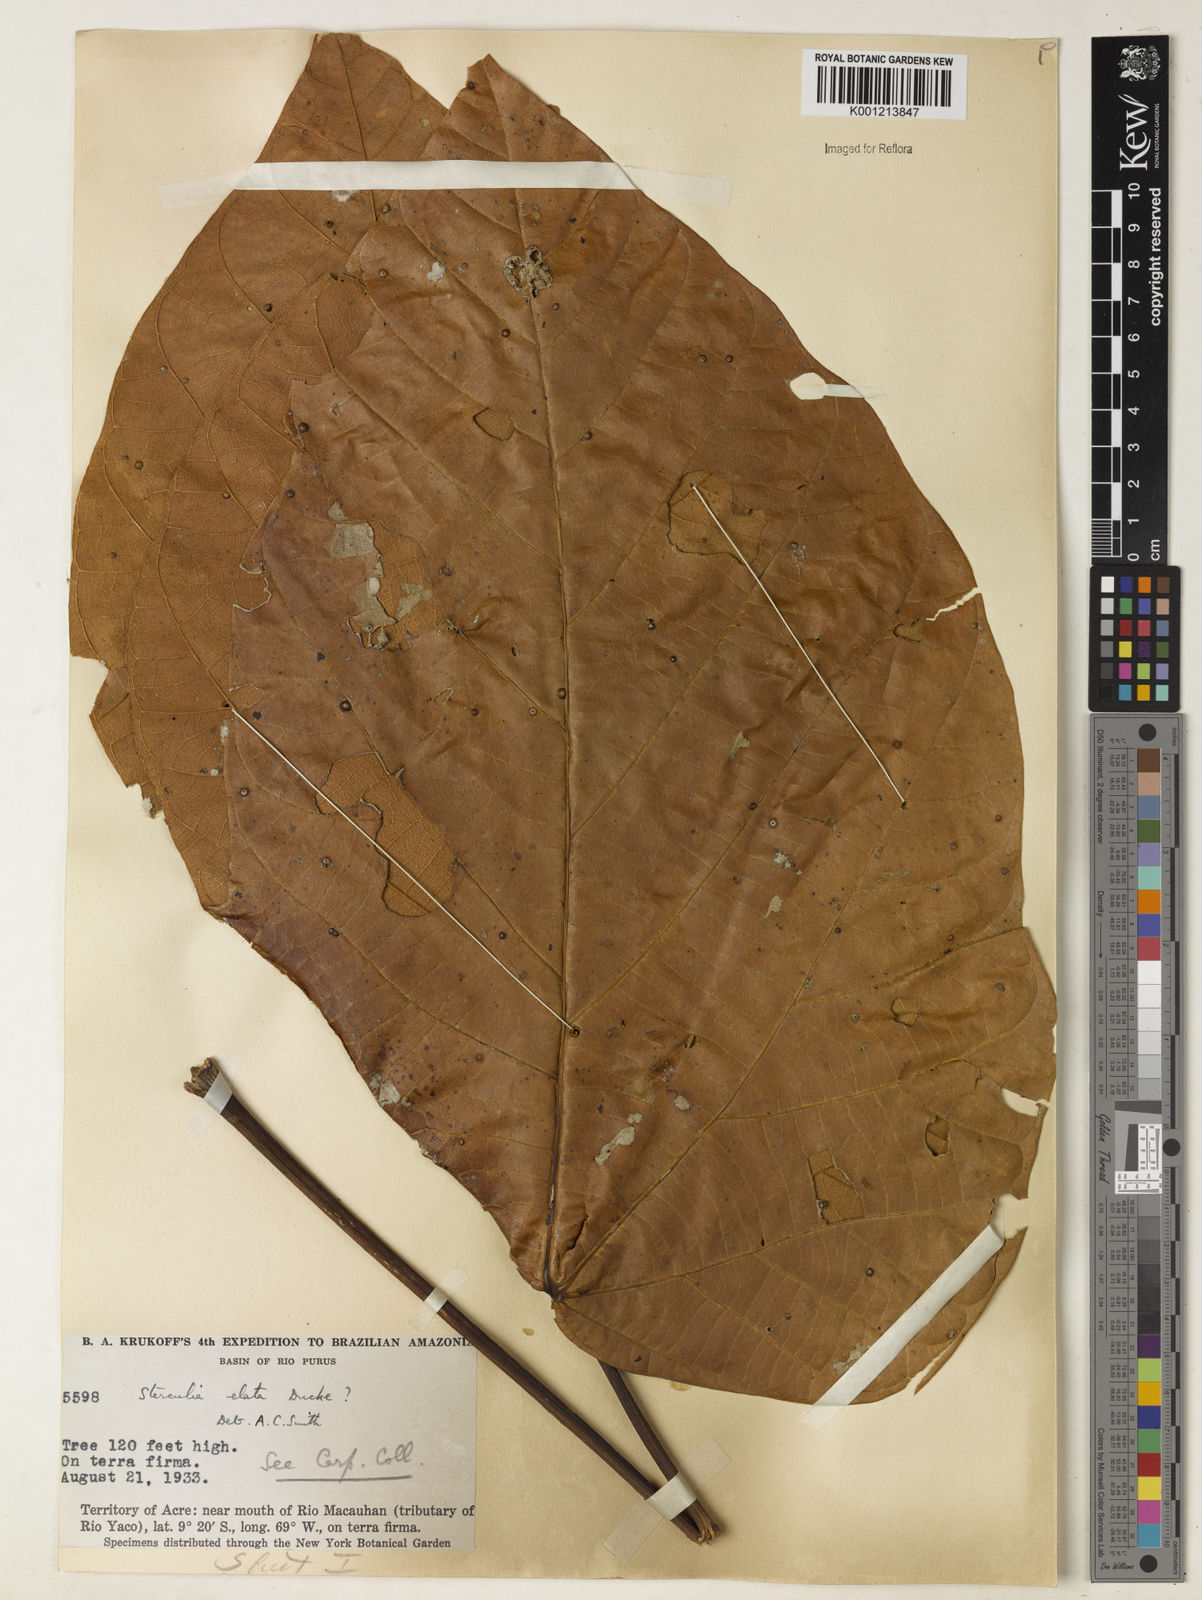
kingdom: Plantae
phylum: Tracheophyta
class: Magnoliopsida
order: Malvales
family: Malvaceae
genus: Sterculia
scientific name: Sterculia apetala
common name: Panama tree
